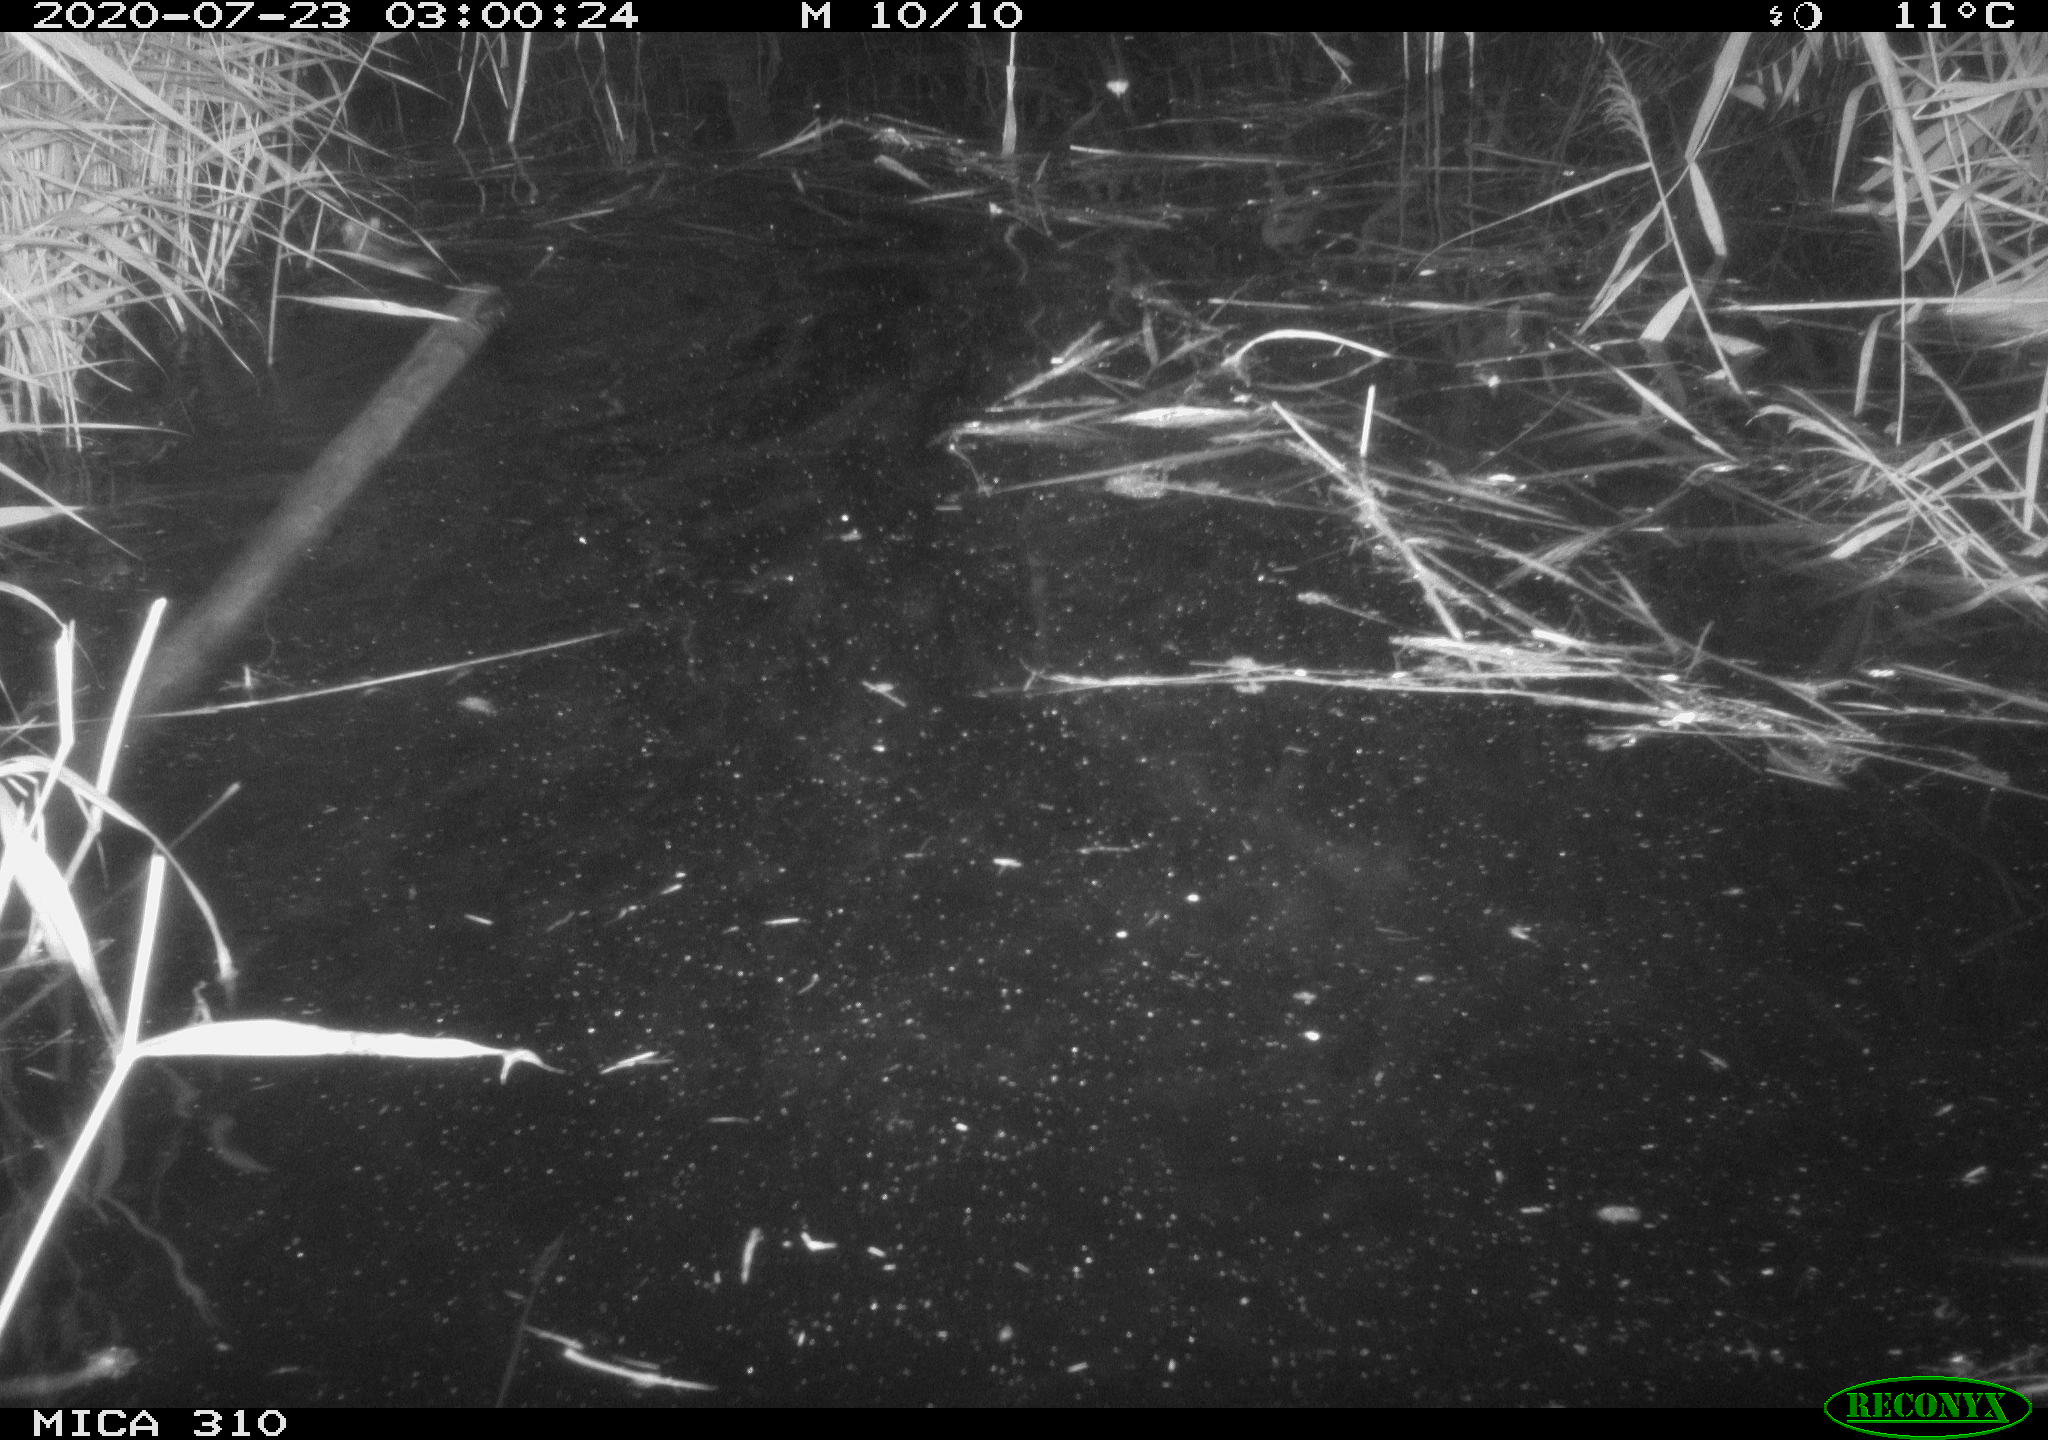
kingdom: Animalia
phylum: Chordata
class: Mammalia
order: Rodentia
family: Muridae
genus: Rattus
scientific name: Rattus norvegicus
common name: Brown rat
